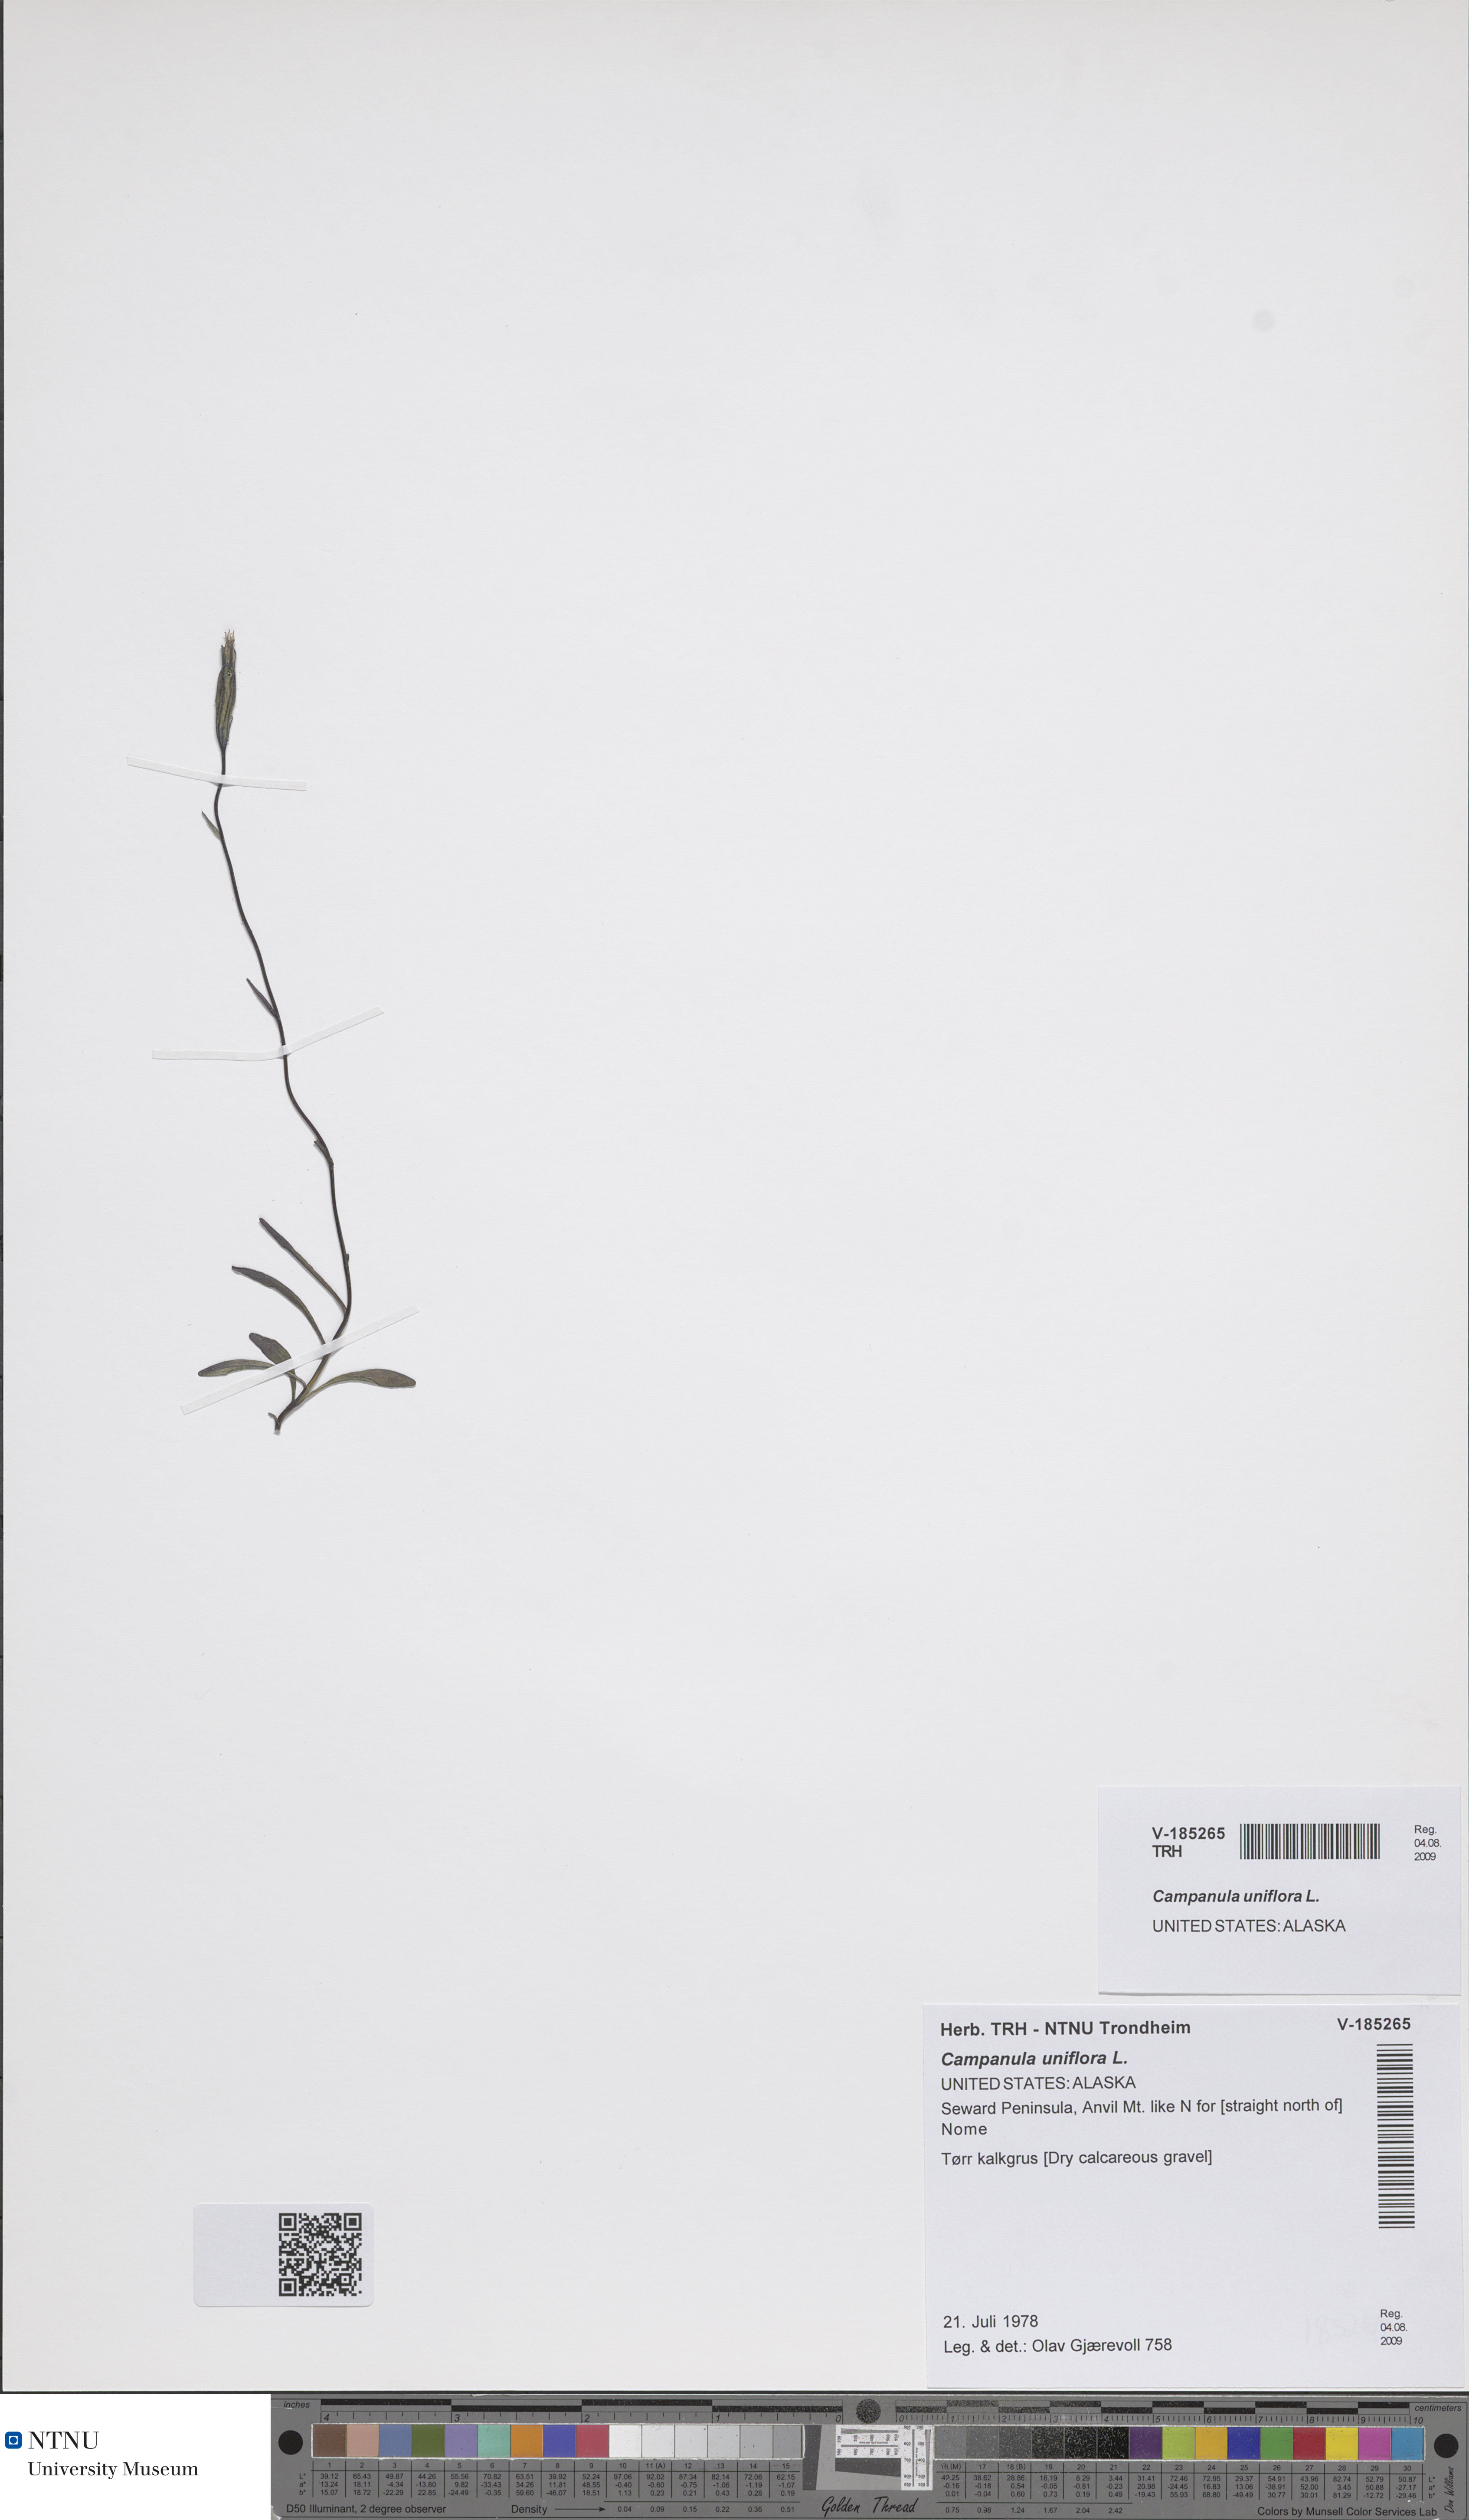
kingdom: Plantae
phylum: Tracheophyta
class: Magnoliopsida
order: Asterales
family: Campanulaceae
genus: Melanocalyx
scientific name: Melanocalyx uniflora
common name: Alpine harebell
